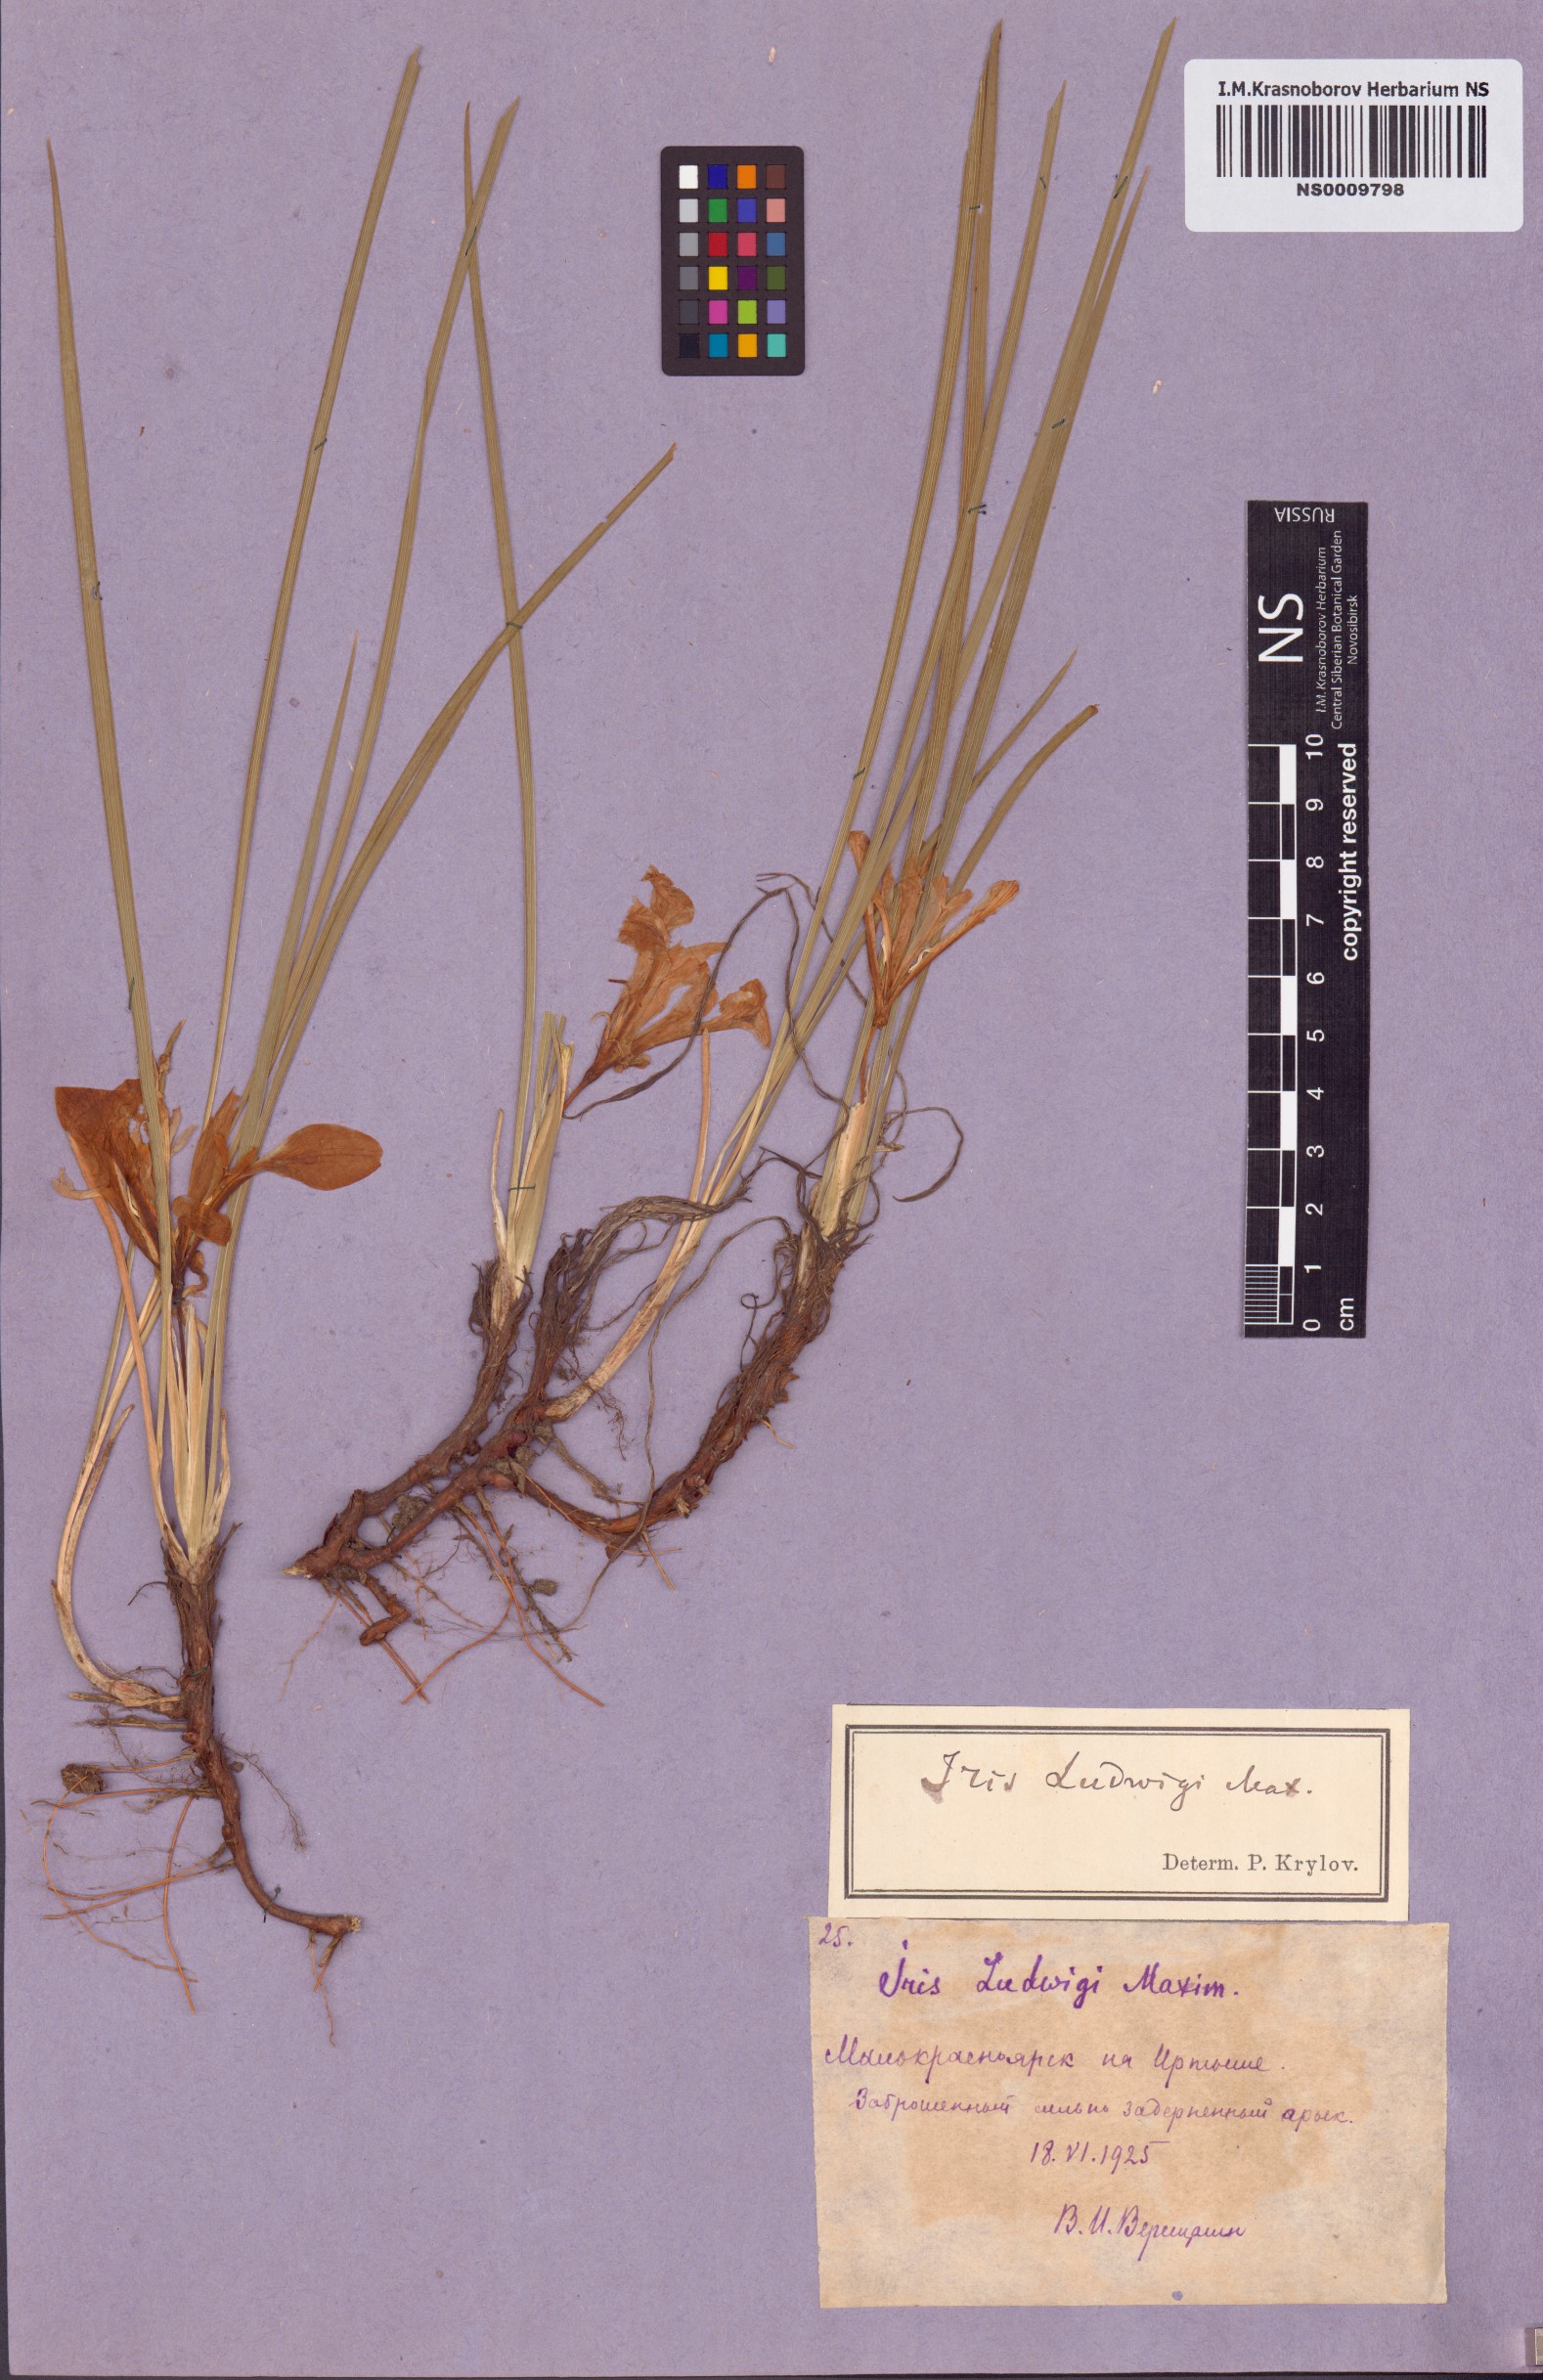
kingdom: Plantae
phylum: Tracheophyta
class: Liliopsida
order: Asparagales
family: Iridaceae
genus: Iris
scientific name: Iris ludwigii
